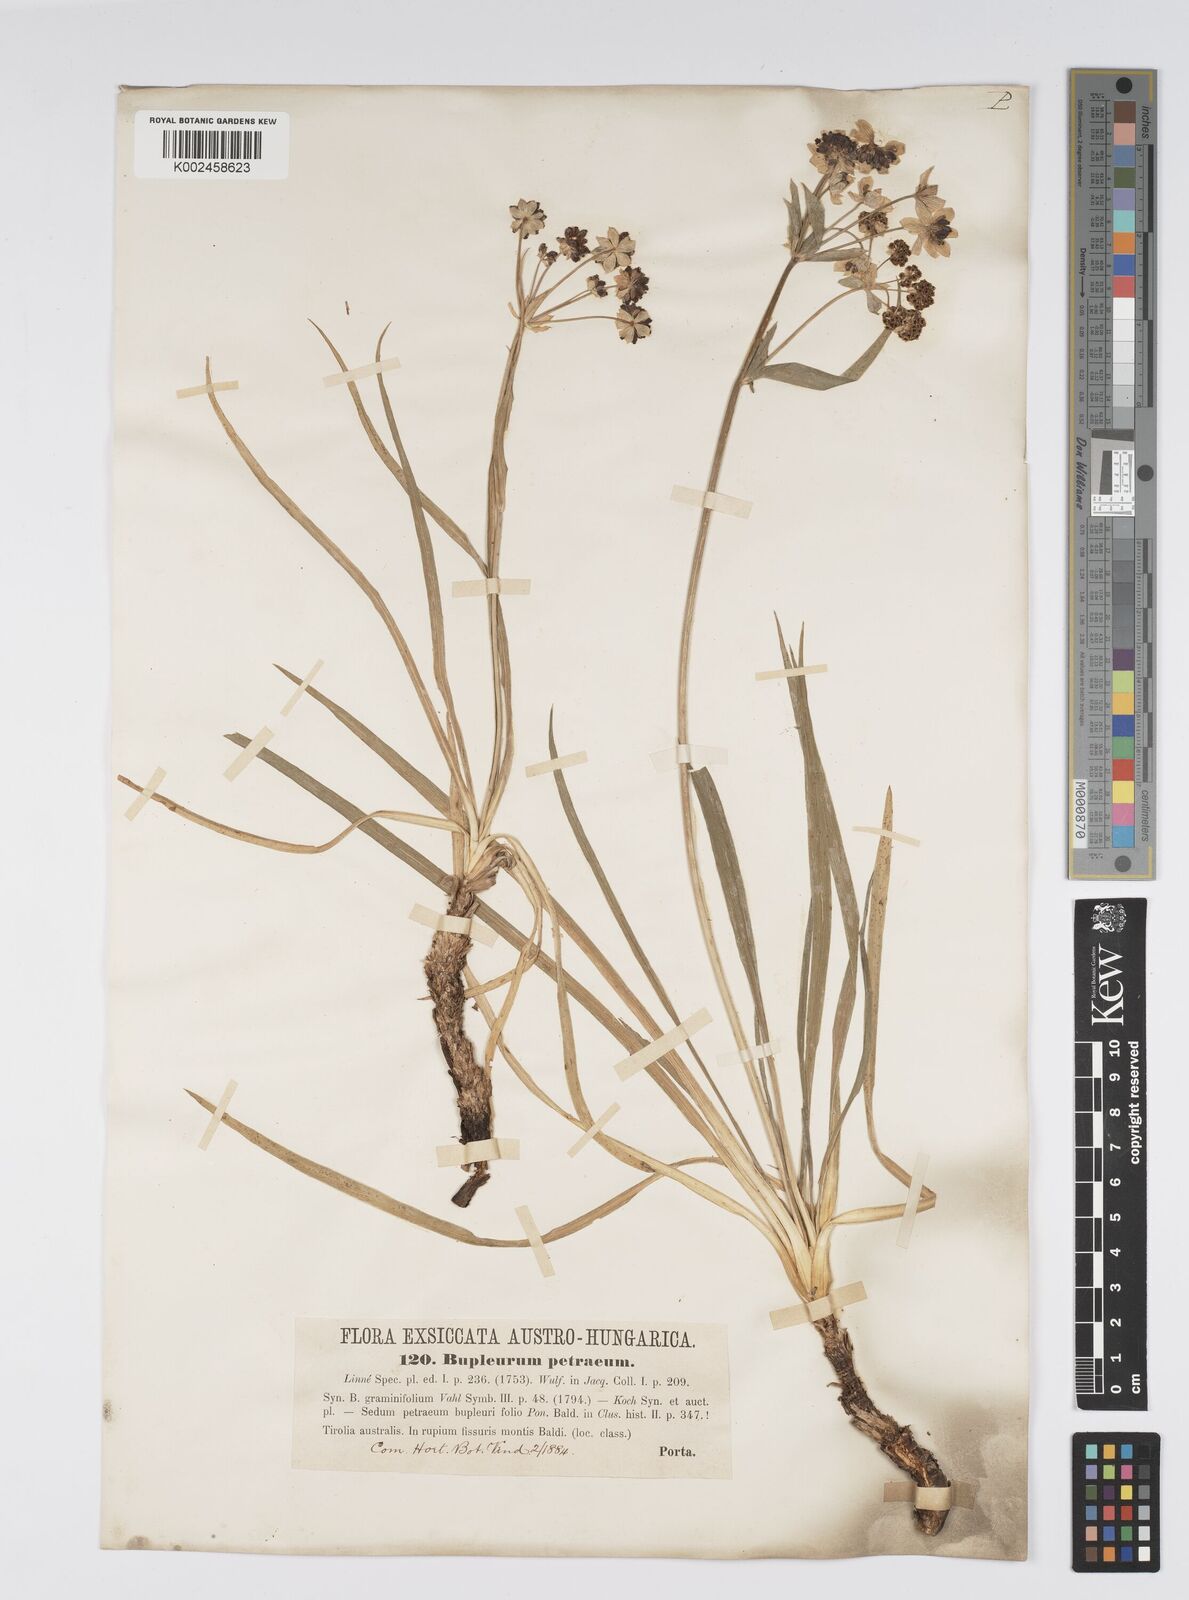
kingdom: Plantae
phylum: Tracheophyta
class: Magnoliopsida
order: Apiales
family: Apiaceae
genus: Bupleurum
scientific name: Bupleurum petraeum
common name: Rock hare's-ear
